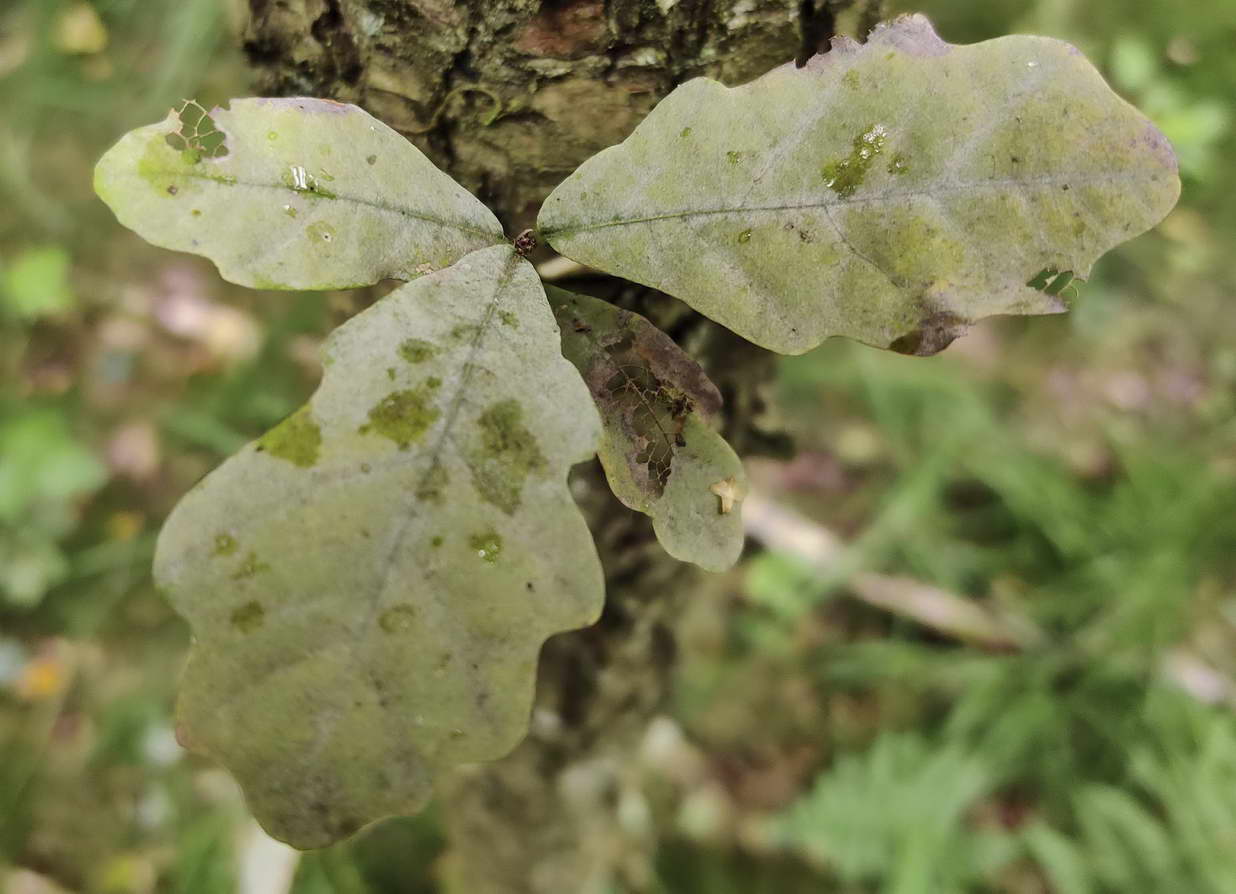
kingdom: Fungi
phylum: Ascomycota
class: Leotiomycetes
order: Helotiales
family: Erysiphaceae
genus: Erysiphe
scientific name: Erysiphe alphitoides
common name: ege-meldug
